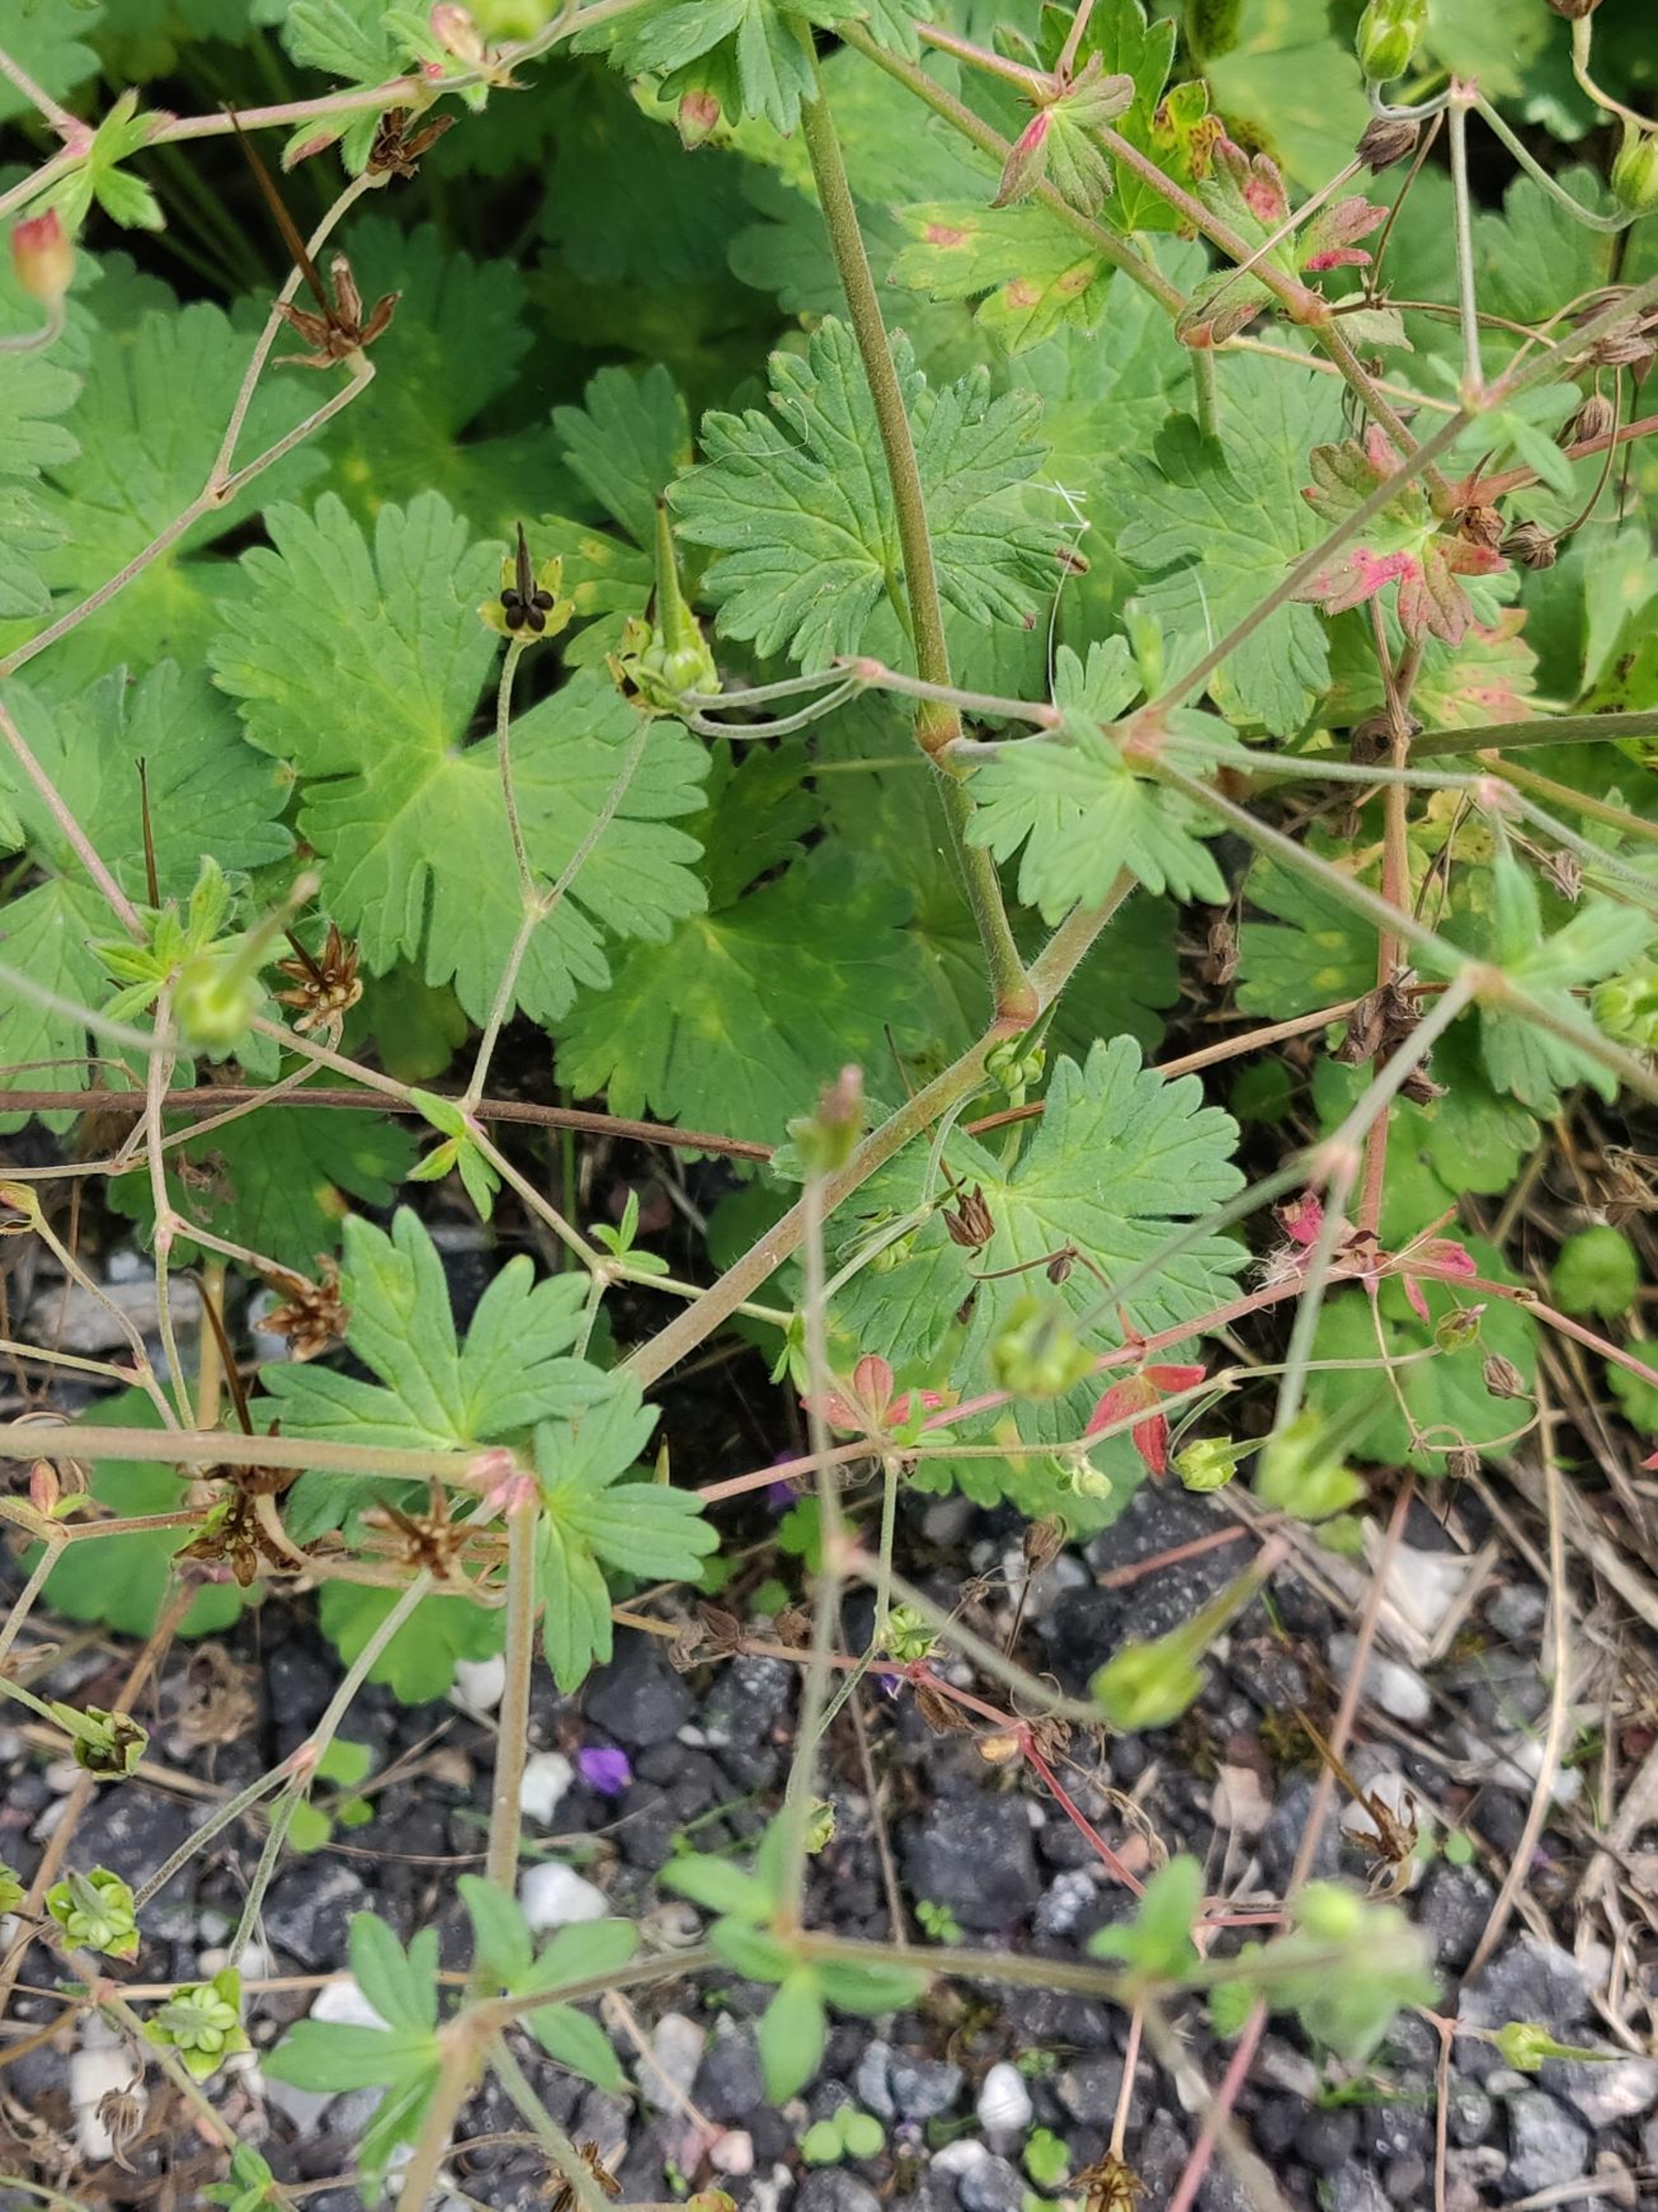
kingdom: Plantae
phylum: Tracheophyta
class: Magnoliopsida
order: Geraniales
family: Geraniaceae
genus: Geranium
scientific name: Geranium pyrenaicum
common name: Pyrenæisk storkenæb
